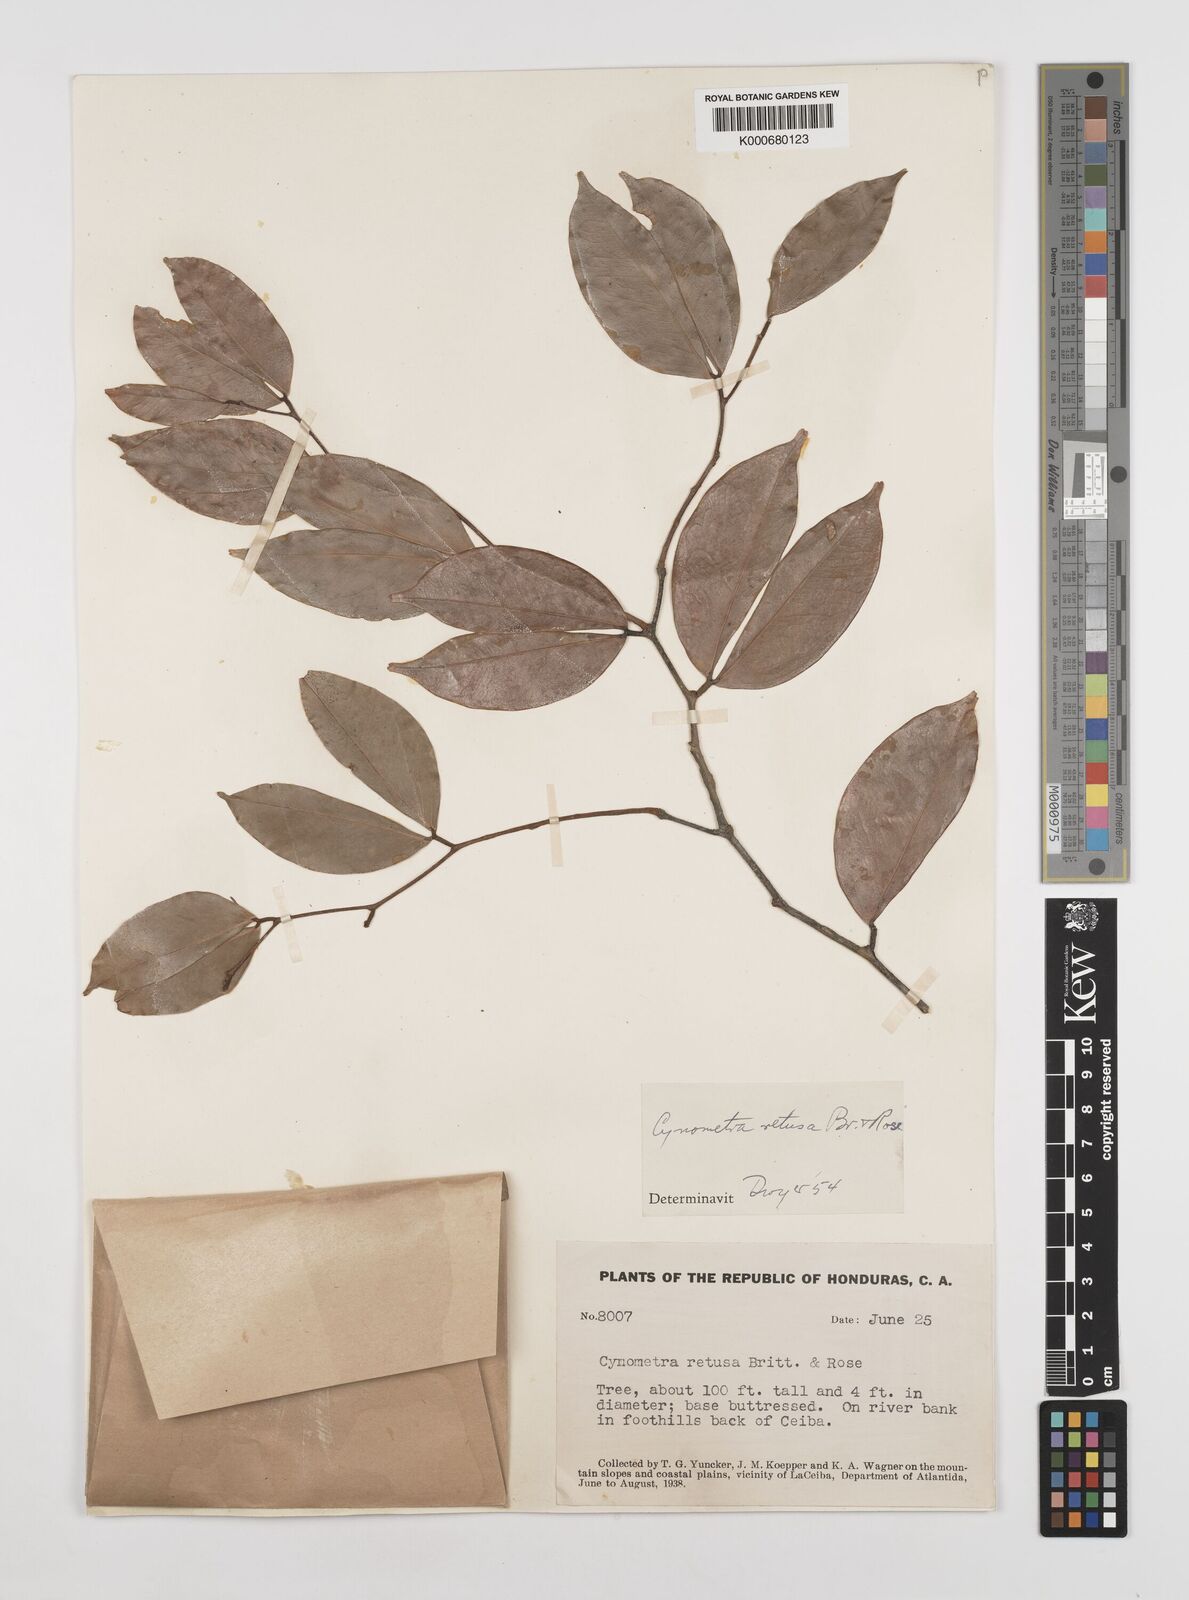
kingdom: Plantae
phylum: Tracheophyta
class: Magnoliopsida
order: Fabales
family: Fabaceae
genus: Cynometra
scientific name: Cynometra retusa
